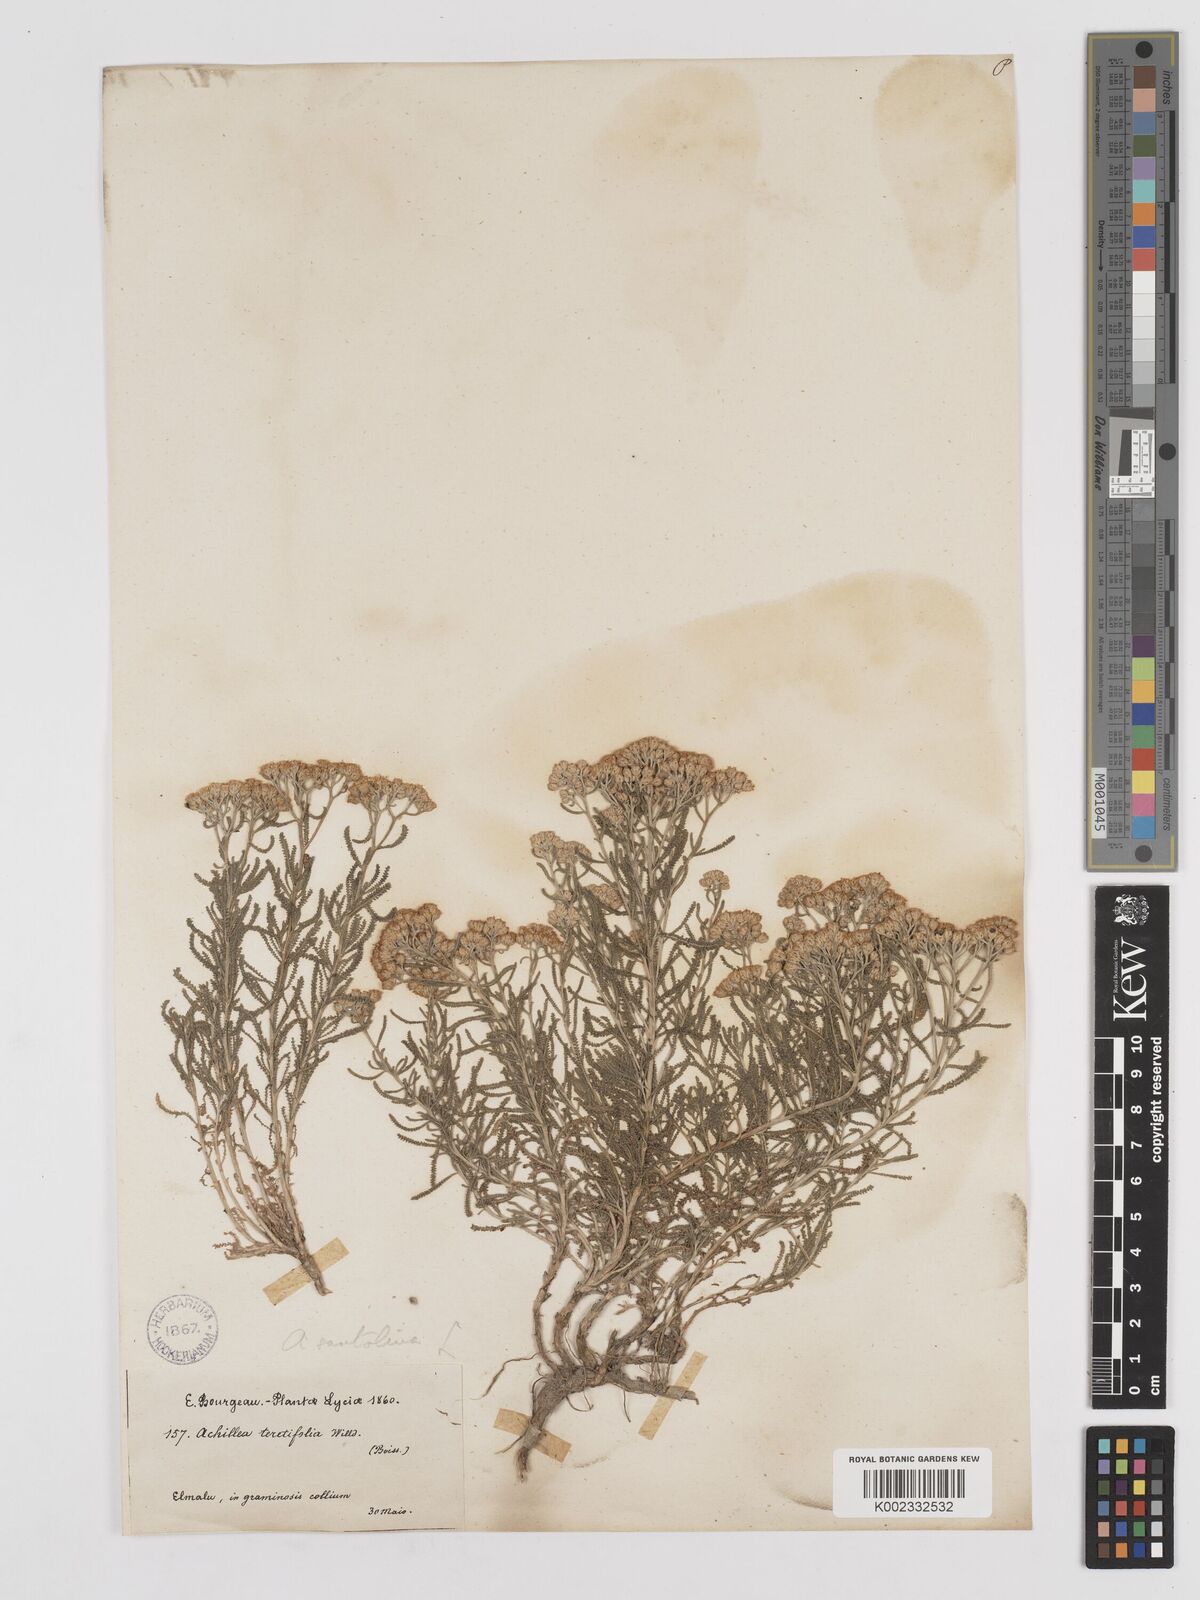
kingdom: Plantae
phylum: Tracheophyta
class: Magnoliopsida
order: Asterales
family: Asteraceae
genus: Achillea
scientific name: Achillea tenuifolia
